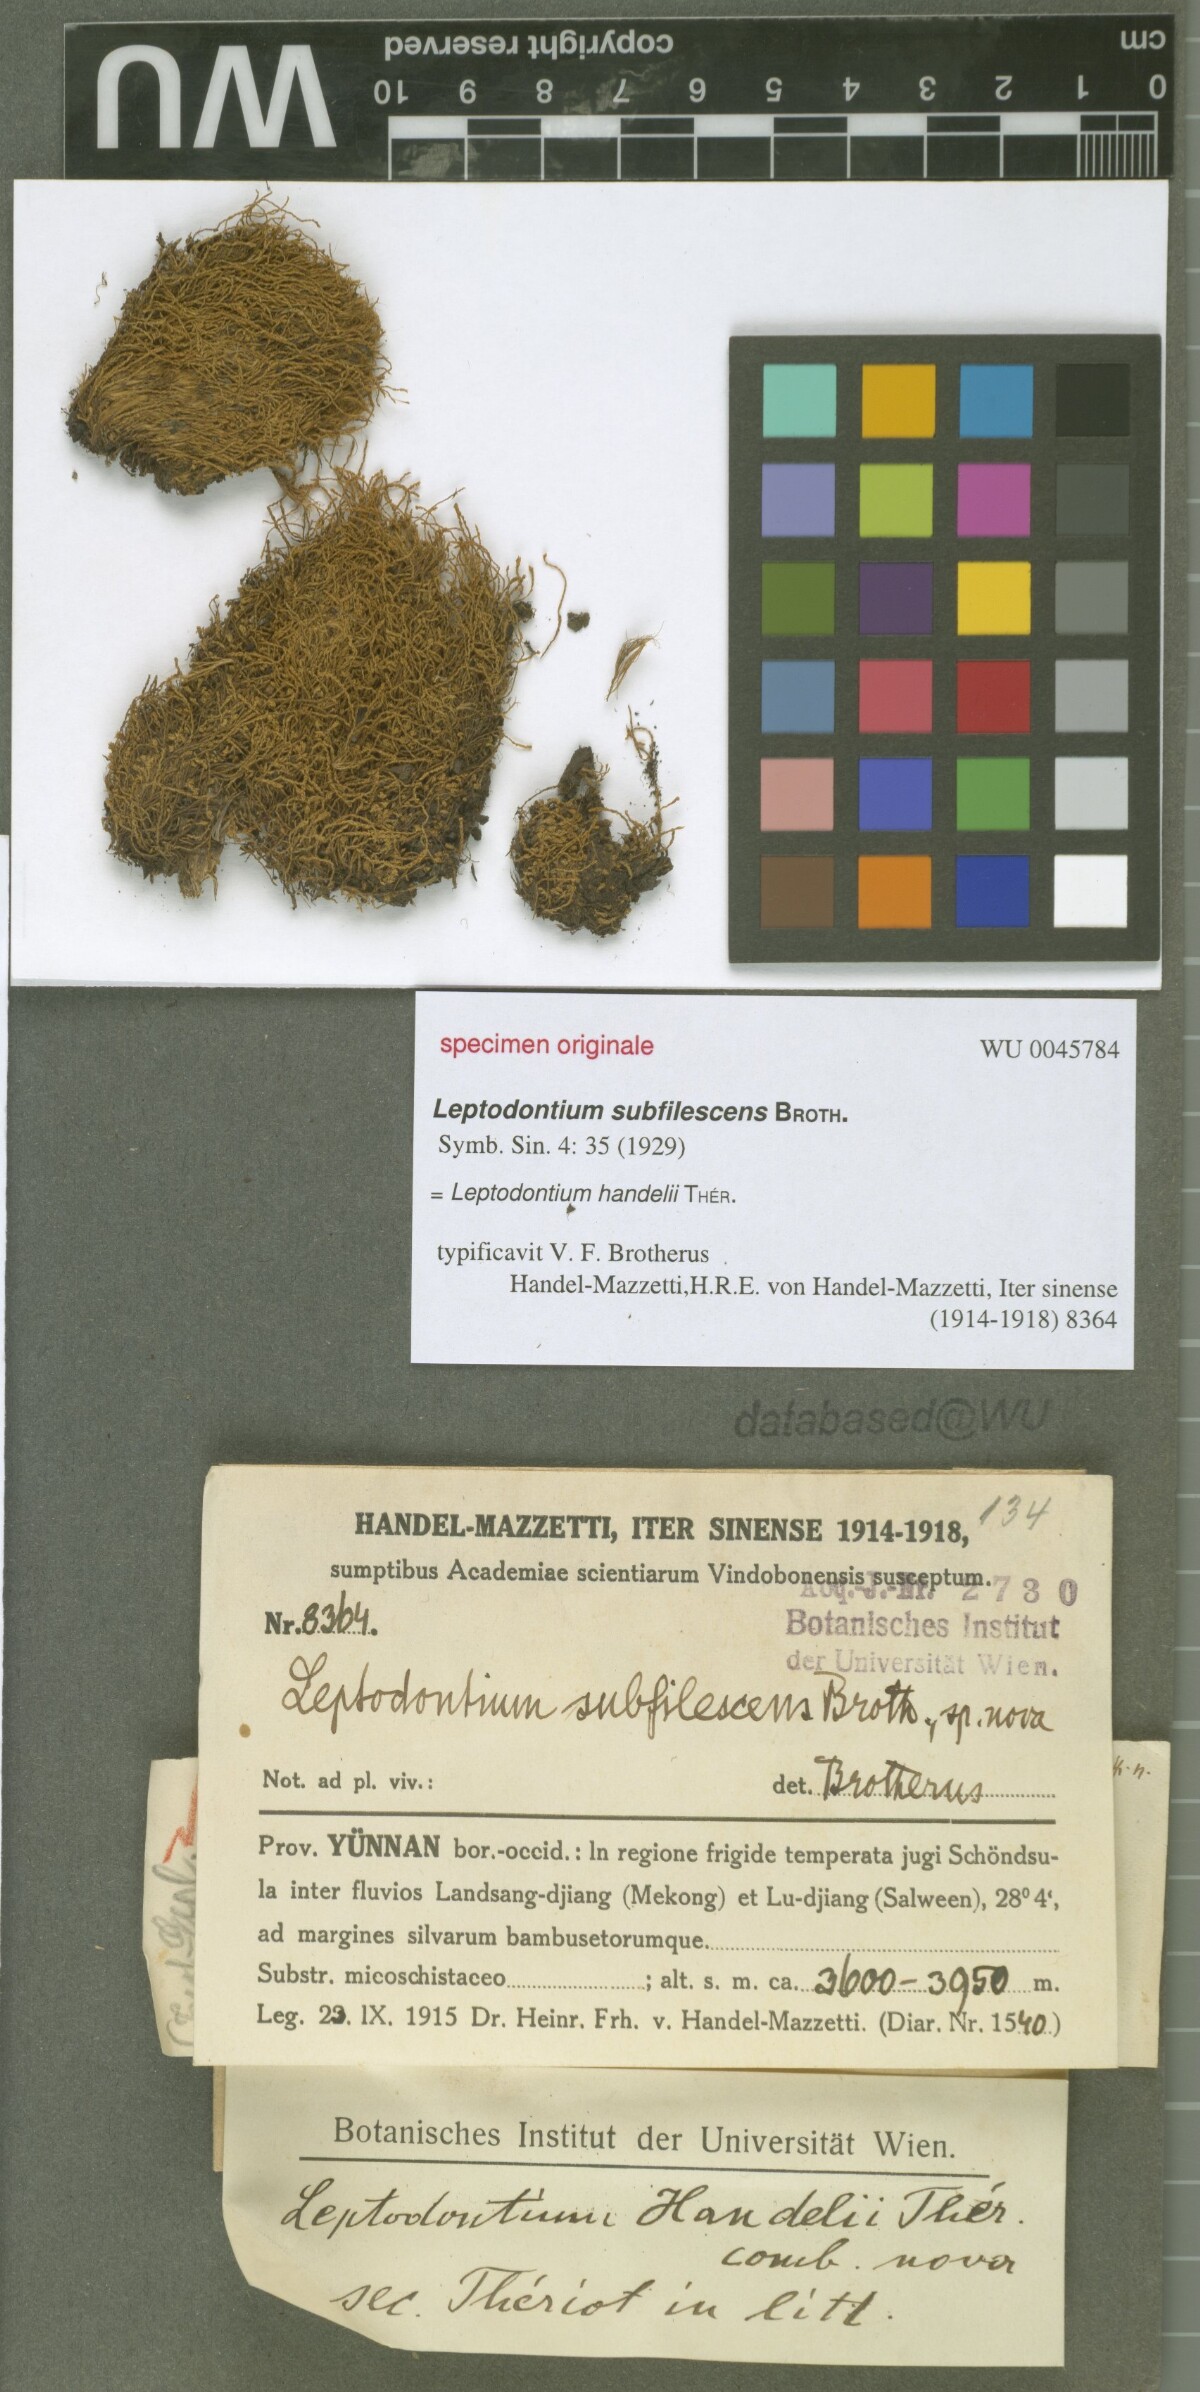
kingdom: Plantae
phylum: Bryophyta
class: Bryopsida
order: Pottiales
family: Pottiaceae
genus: Leptodontium
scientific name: Leptodontium flexifolium
